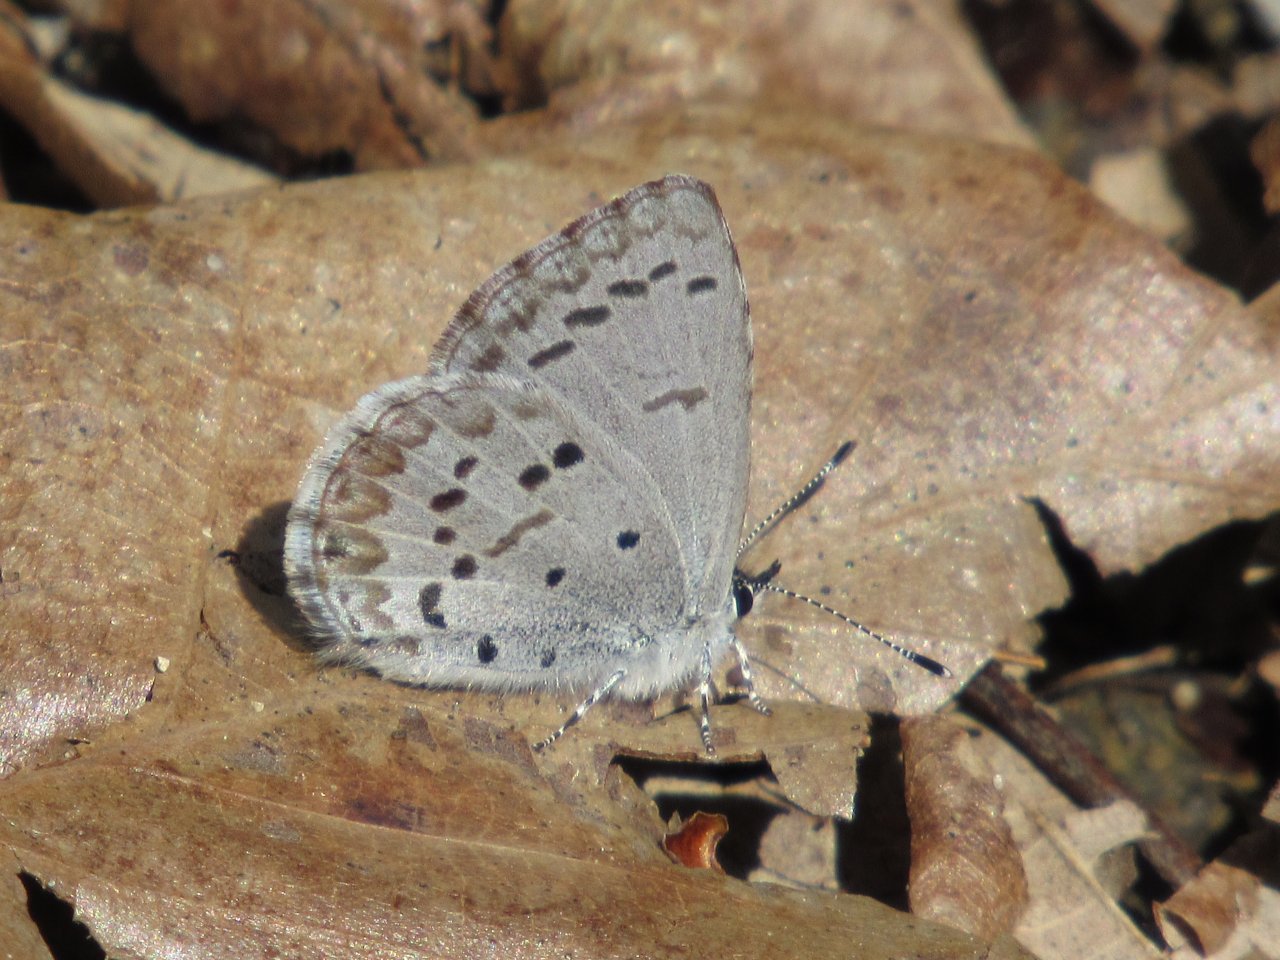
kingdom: Animalia
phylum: Arthropoda
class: Insecta
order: Lepidoptera
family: Lycaenidae
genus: Celastrina
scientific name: Celastrina ladon
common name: Spring Azure
